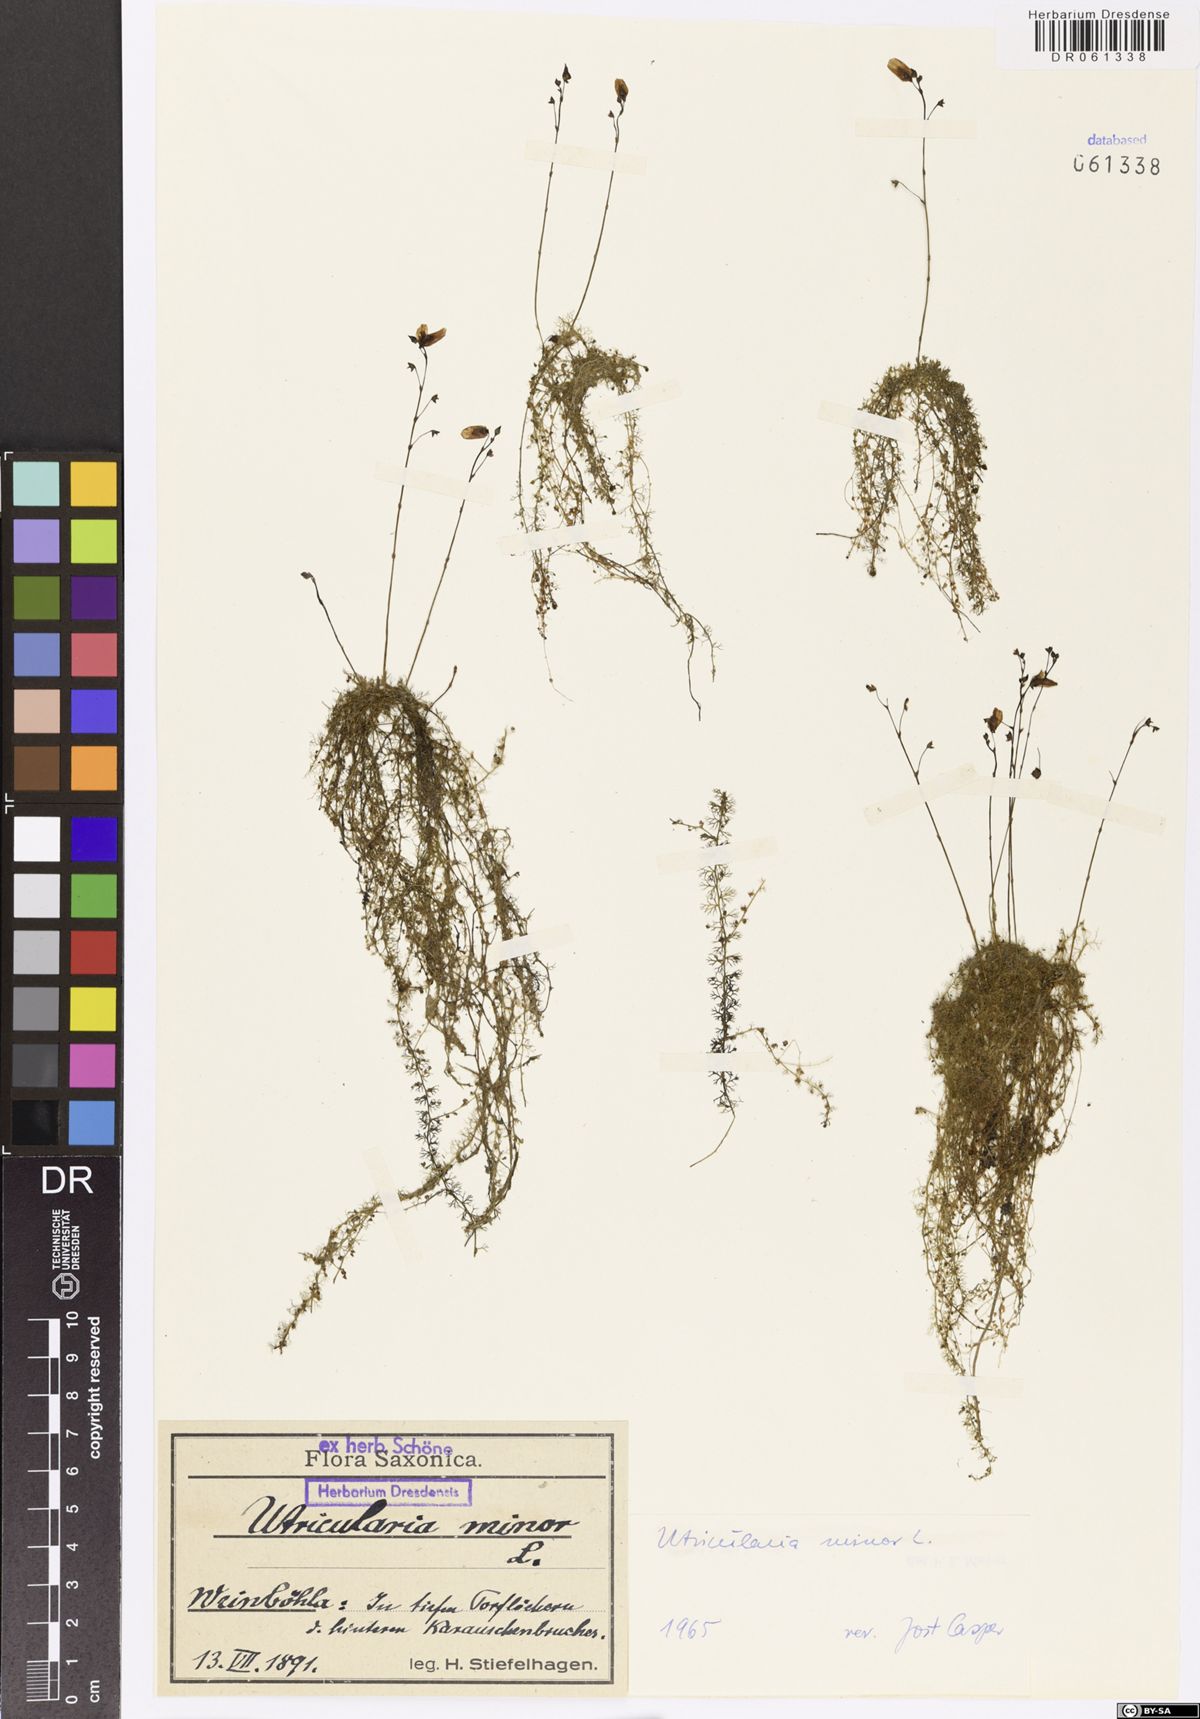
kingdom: Plantae
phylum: Tracheophyta
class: Magnoliopsida
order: Lamiales
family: Lentibulariaceae
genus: Utricularia
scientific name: Utricularia minor
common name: Lesser bladderwort
